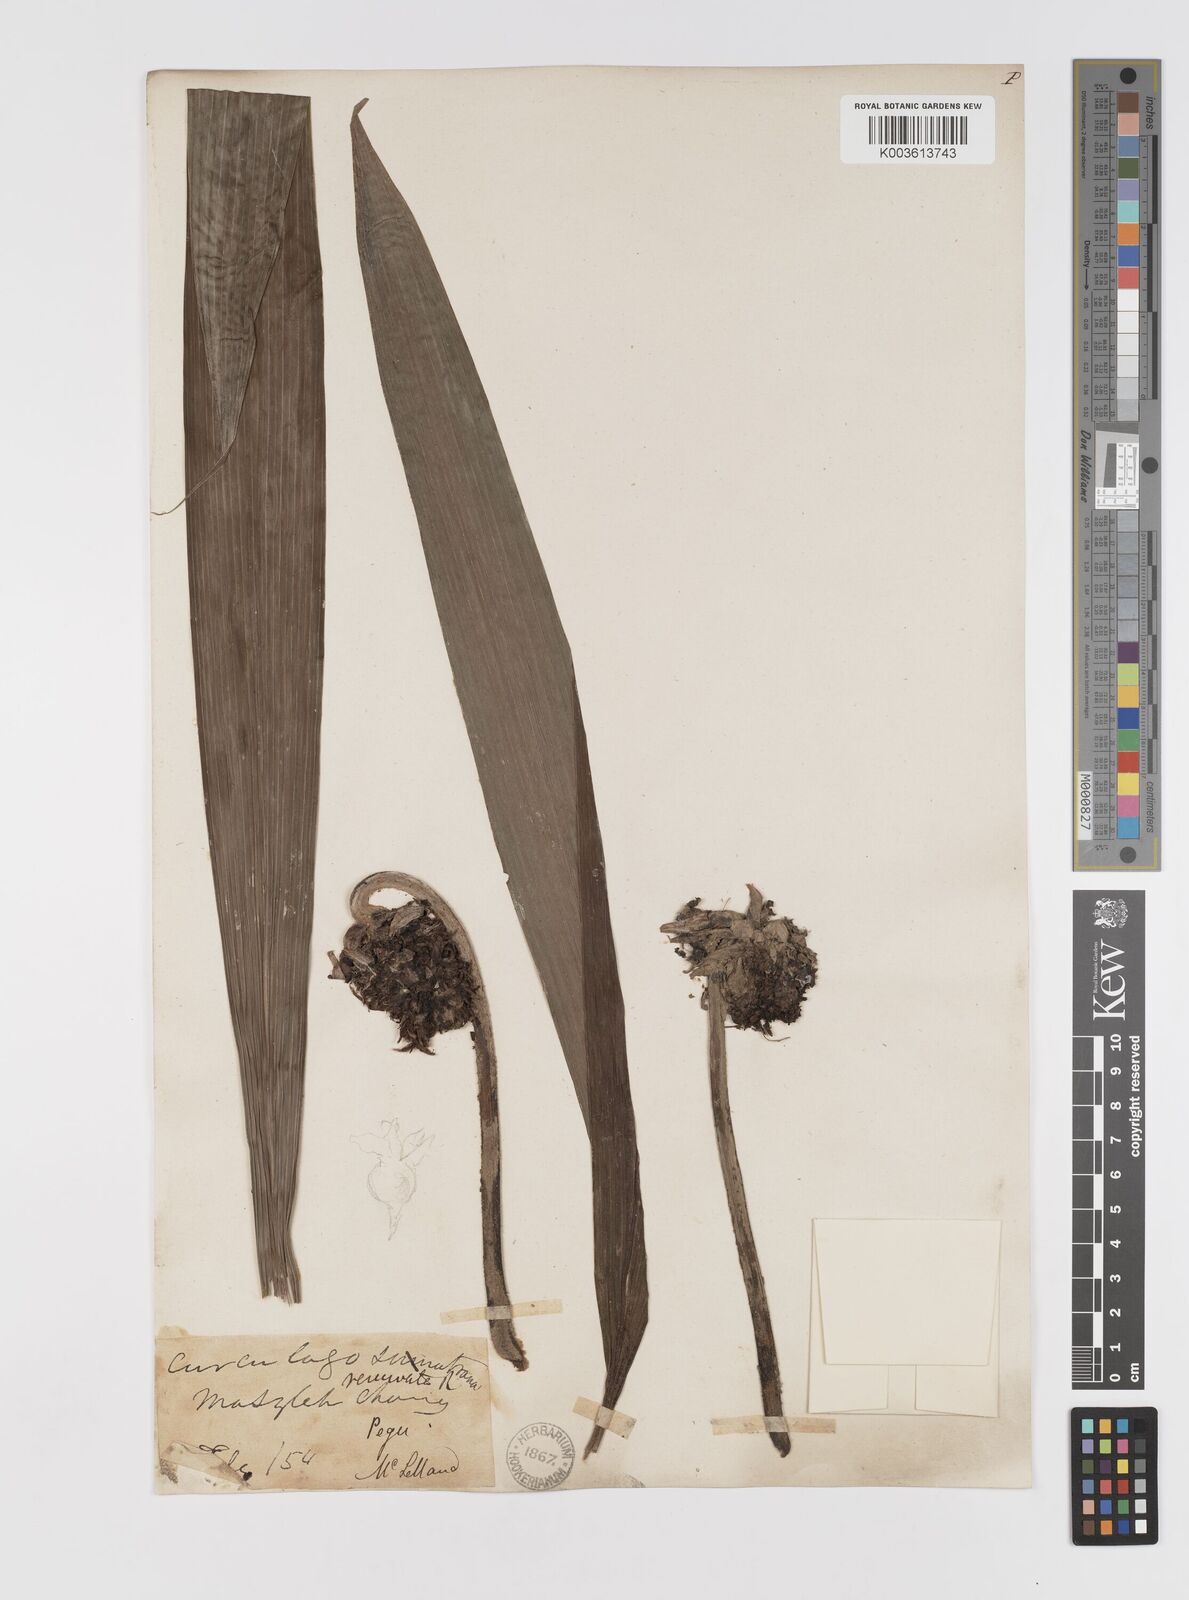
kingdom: Plantae
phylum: Tracheophyta
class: Liliopsida
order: Asparagales
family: Hypoxidaceae
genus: Curculigo
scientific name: Curculigo capitulata
